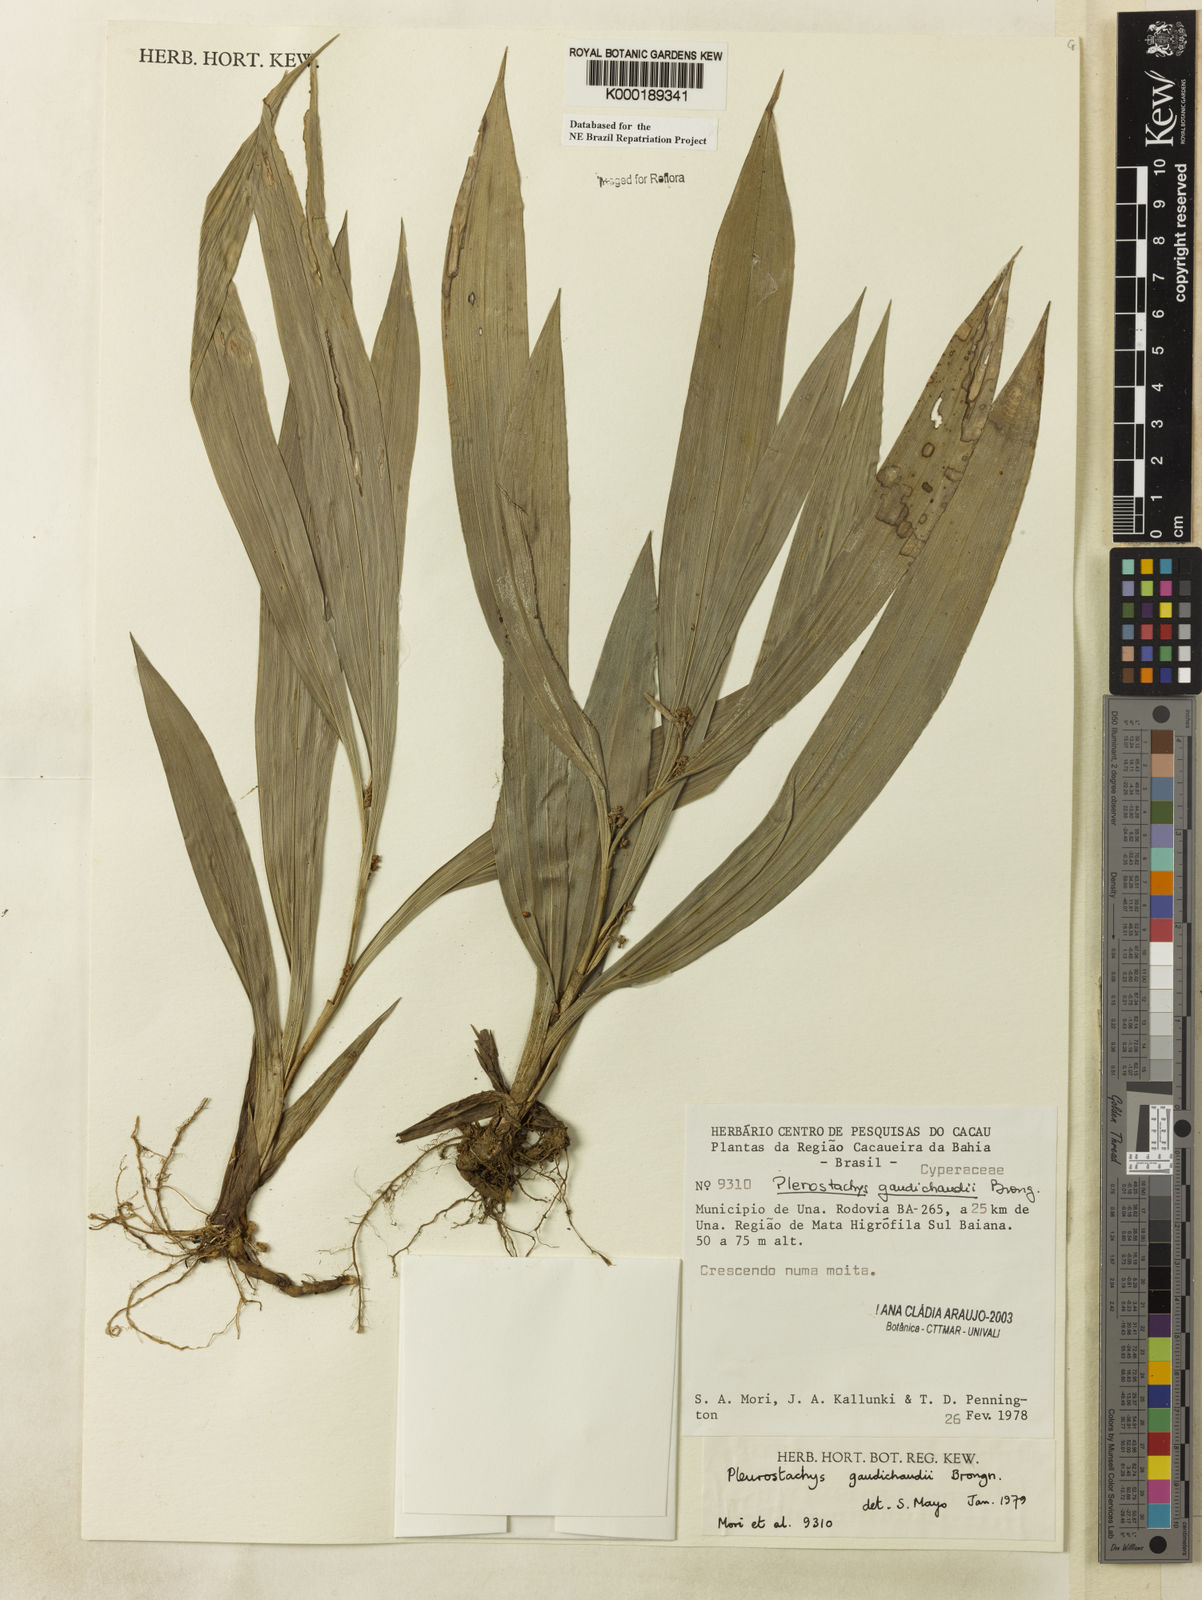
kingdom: Plantae
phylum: Tracheophyta
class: Liliopsida
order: Poales
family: Cyperaceae
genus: Rhynchospora
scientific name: Rhynchospora gaudichaudii
